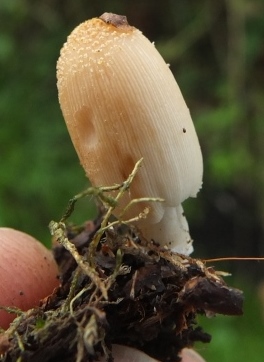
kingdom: Fungi
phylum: Basidiomycota
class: Agaricomycetes
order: Agaricales
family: Psathyrellaceae
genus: Coprinellus
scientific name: Coprinellus domesticus
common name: hus-blækhat
